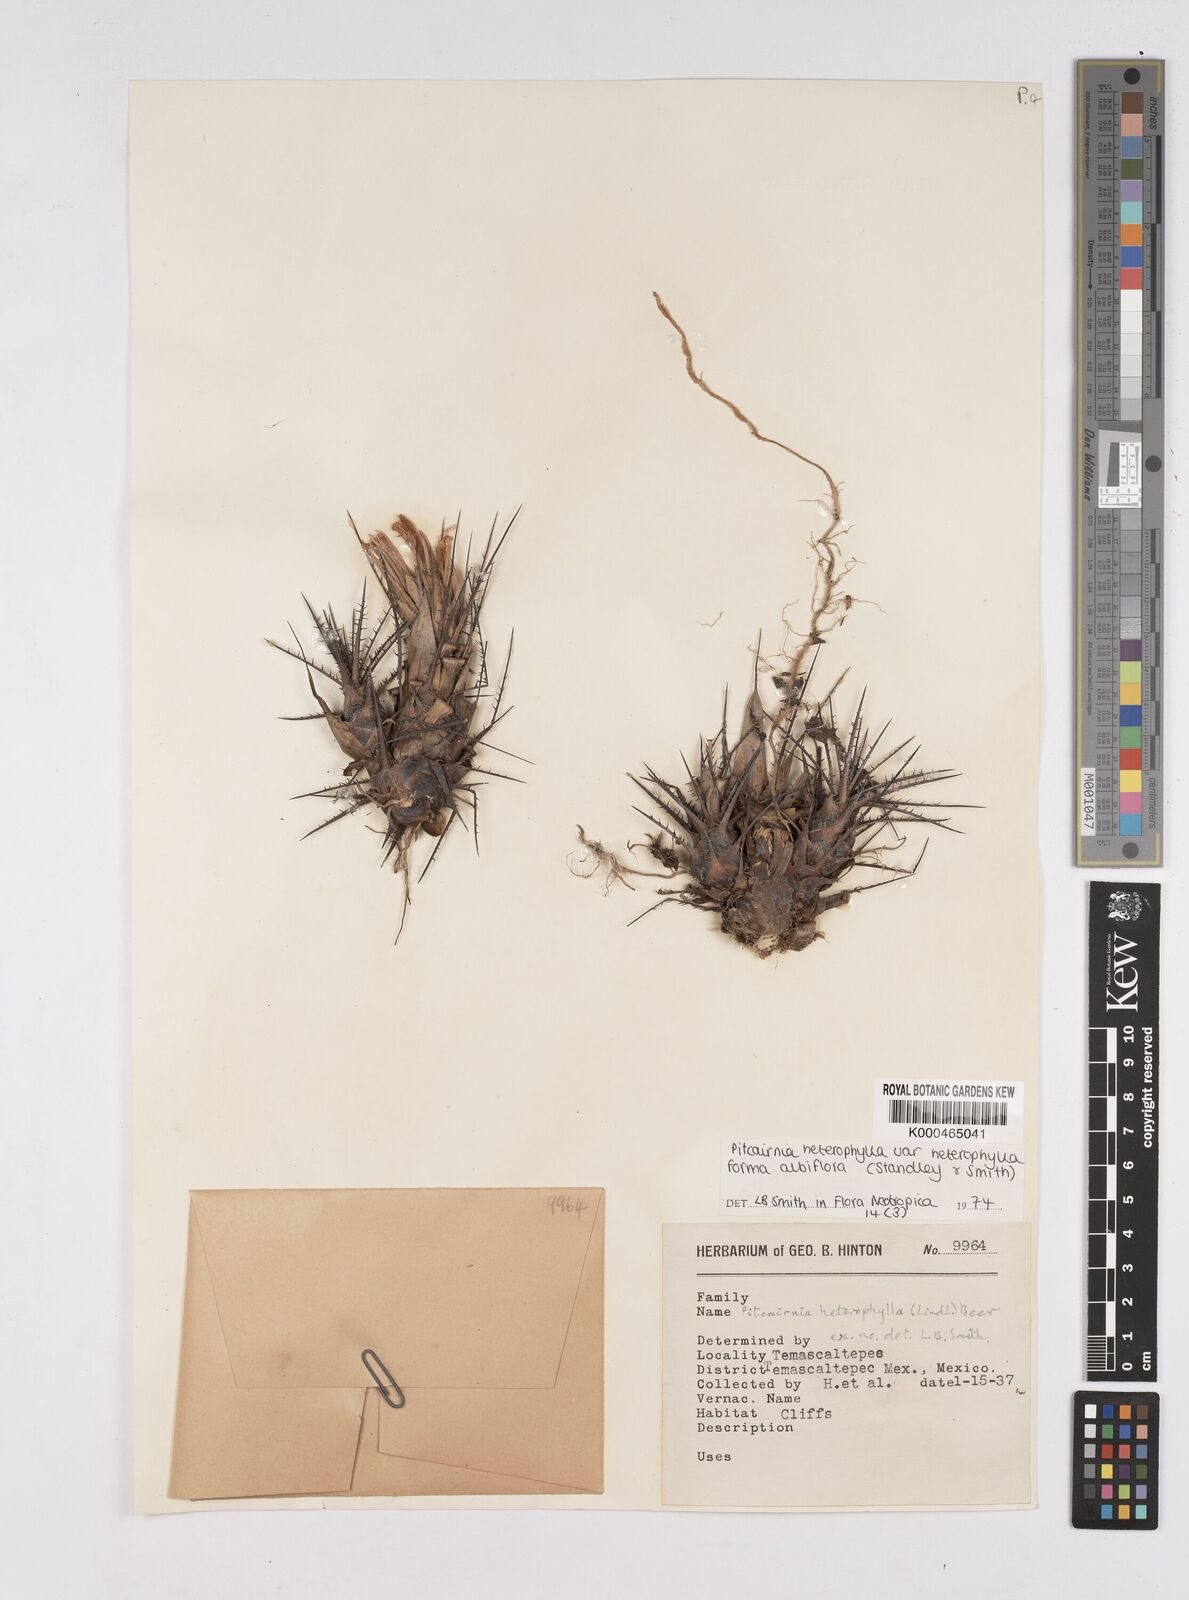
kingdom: Plantae
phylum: Tracheophyta
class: Liliopsida
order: Poales
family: Bromeliaceae
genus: Pitcairnia
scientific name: Pitcairnia heterophylla
